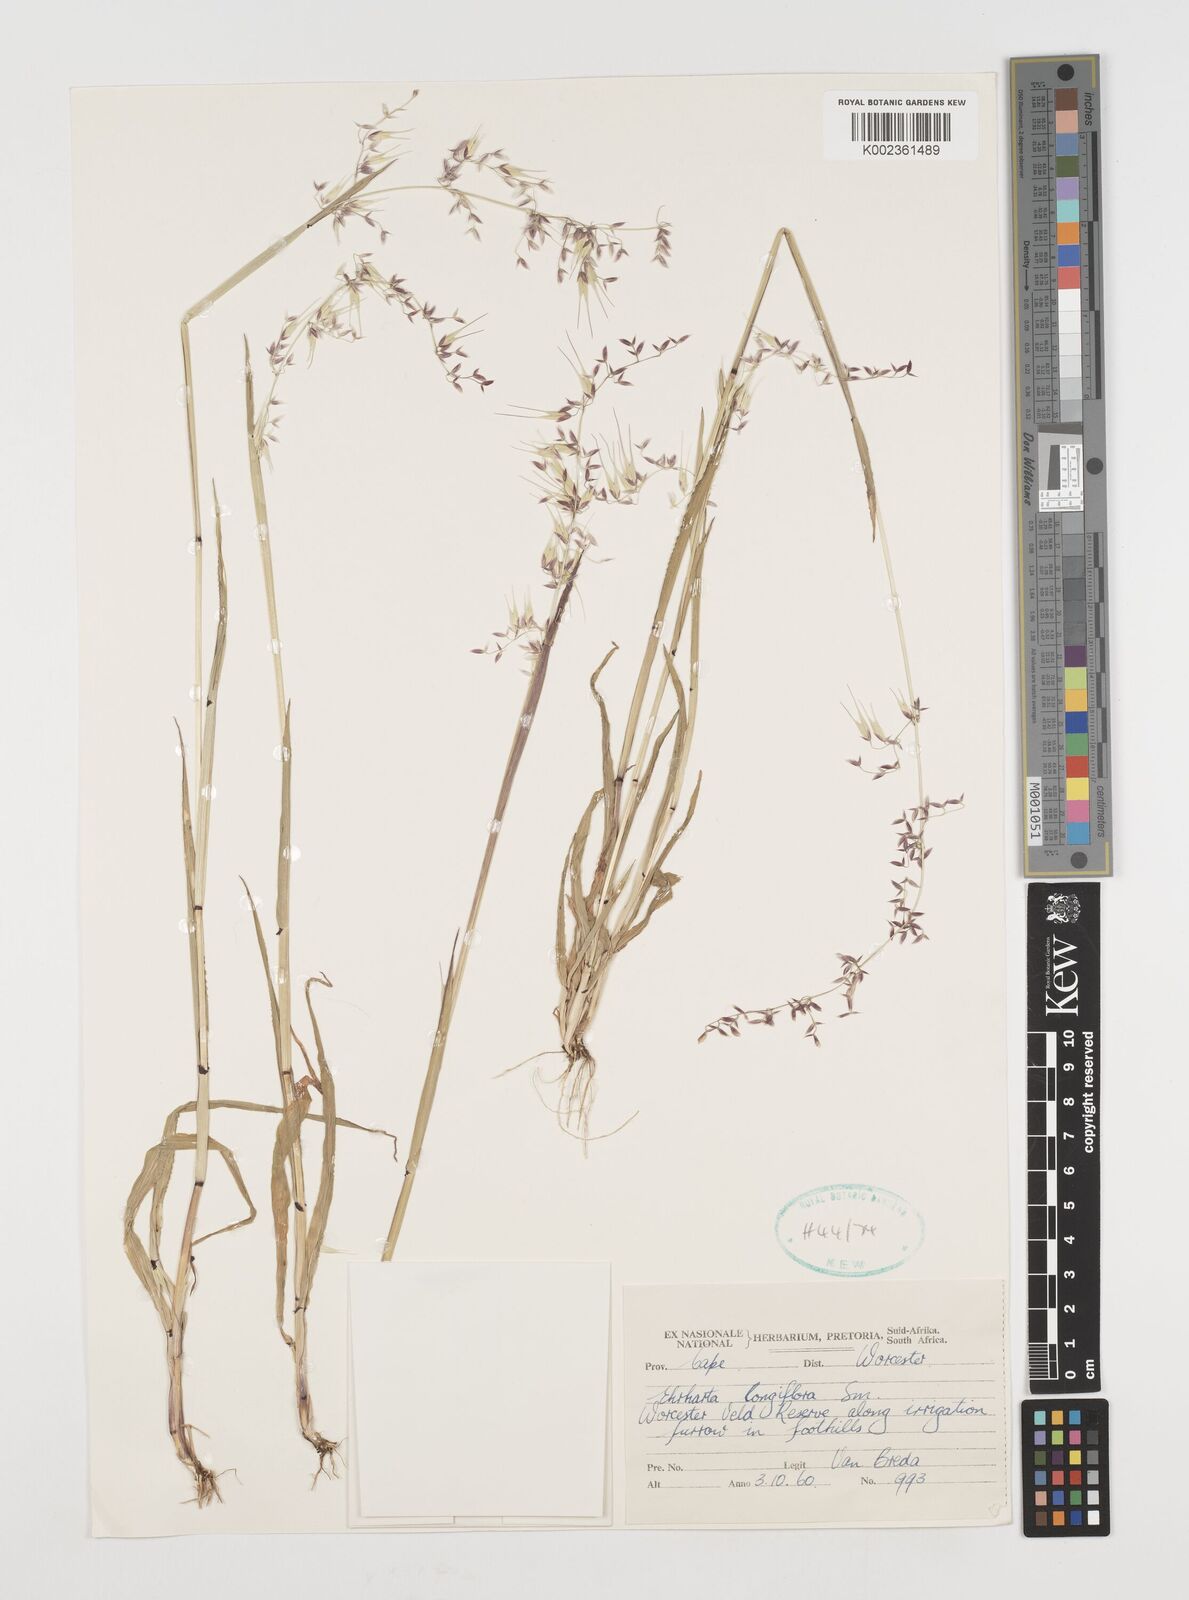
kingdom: Plantae
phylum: Tracheophyta
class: Liliopsida
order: Poales
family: Poaceae
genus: Ehrharta
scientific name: Ehrharta longiflora
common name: Longflowered veldtgrass
